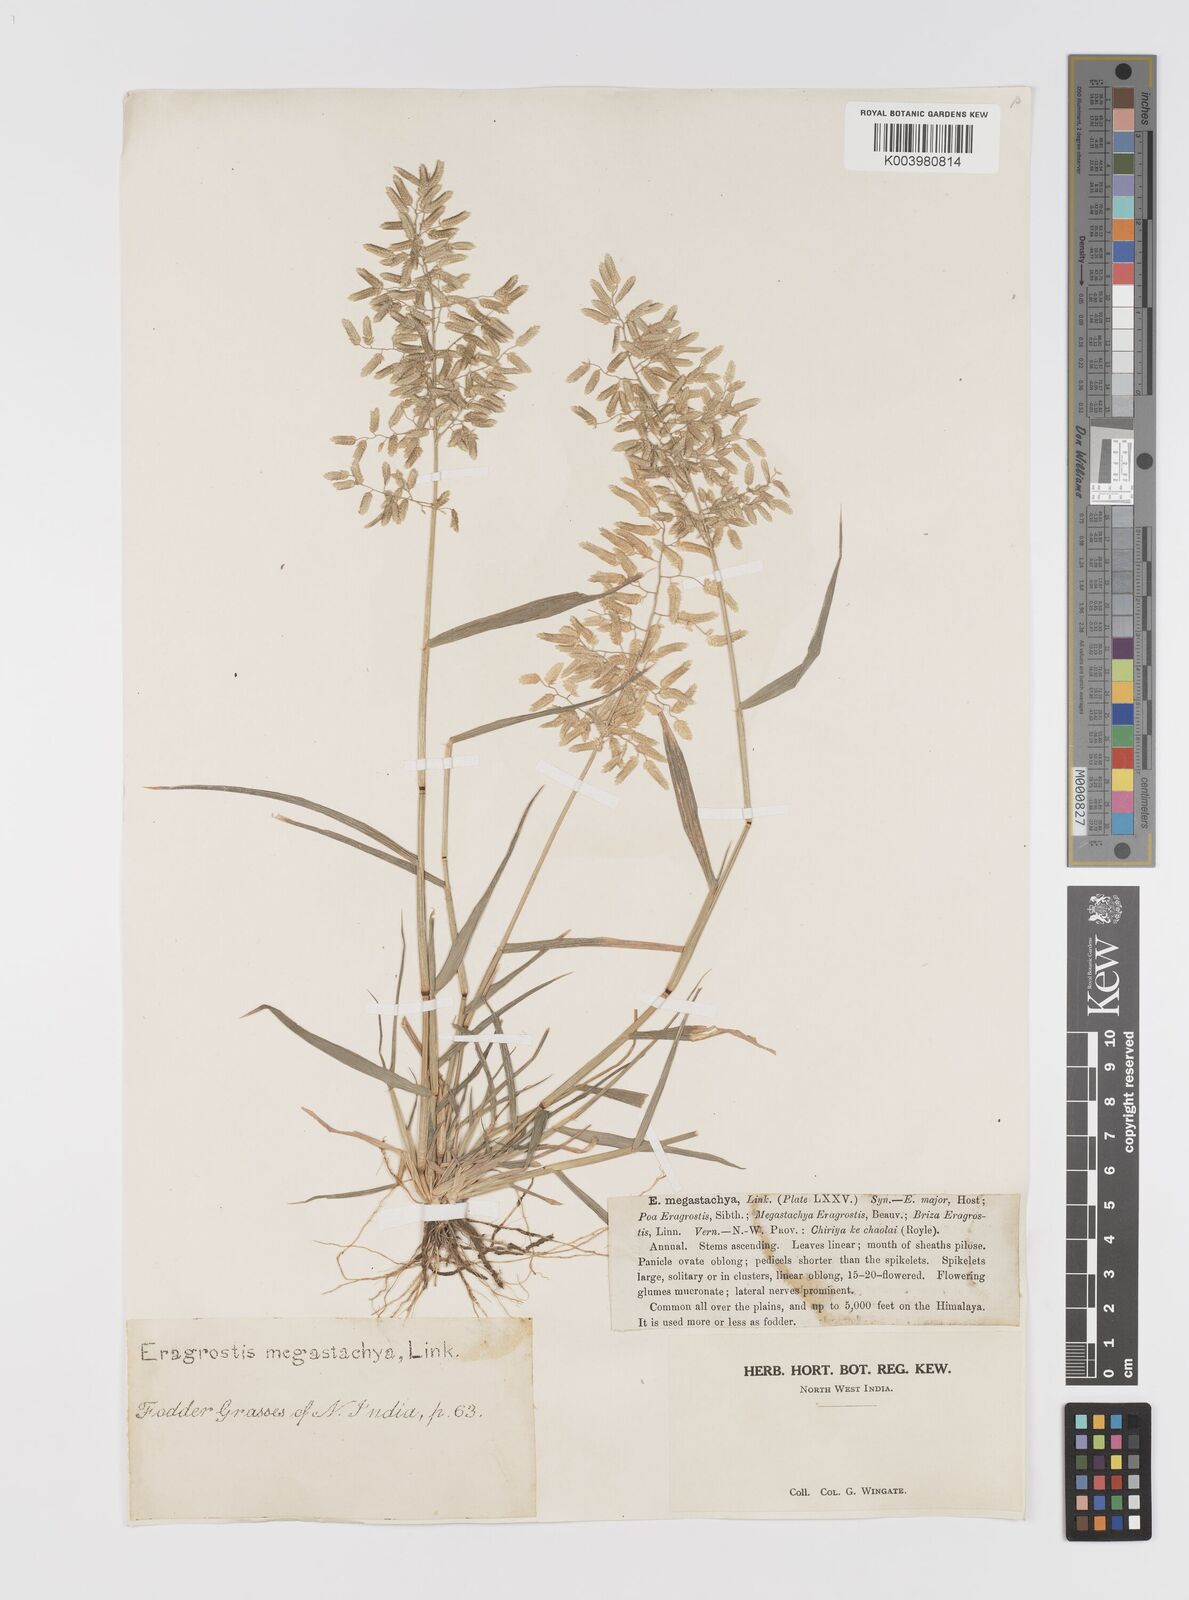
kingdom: Plantae
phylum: Tracheophyta
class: Liliopsida
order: Poales
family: Poaceae
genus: Eragrostis
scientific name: Eragrostis cilianensis
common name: Stinkgrass
